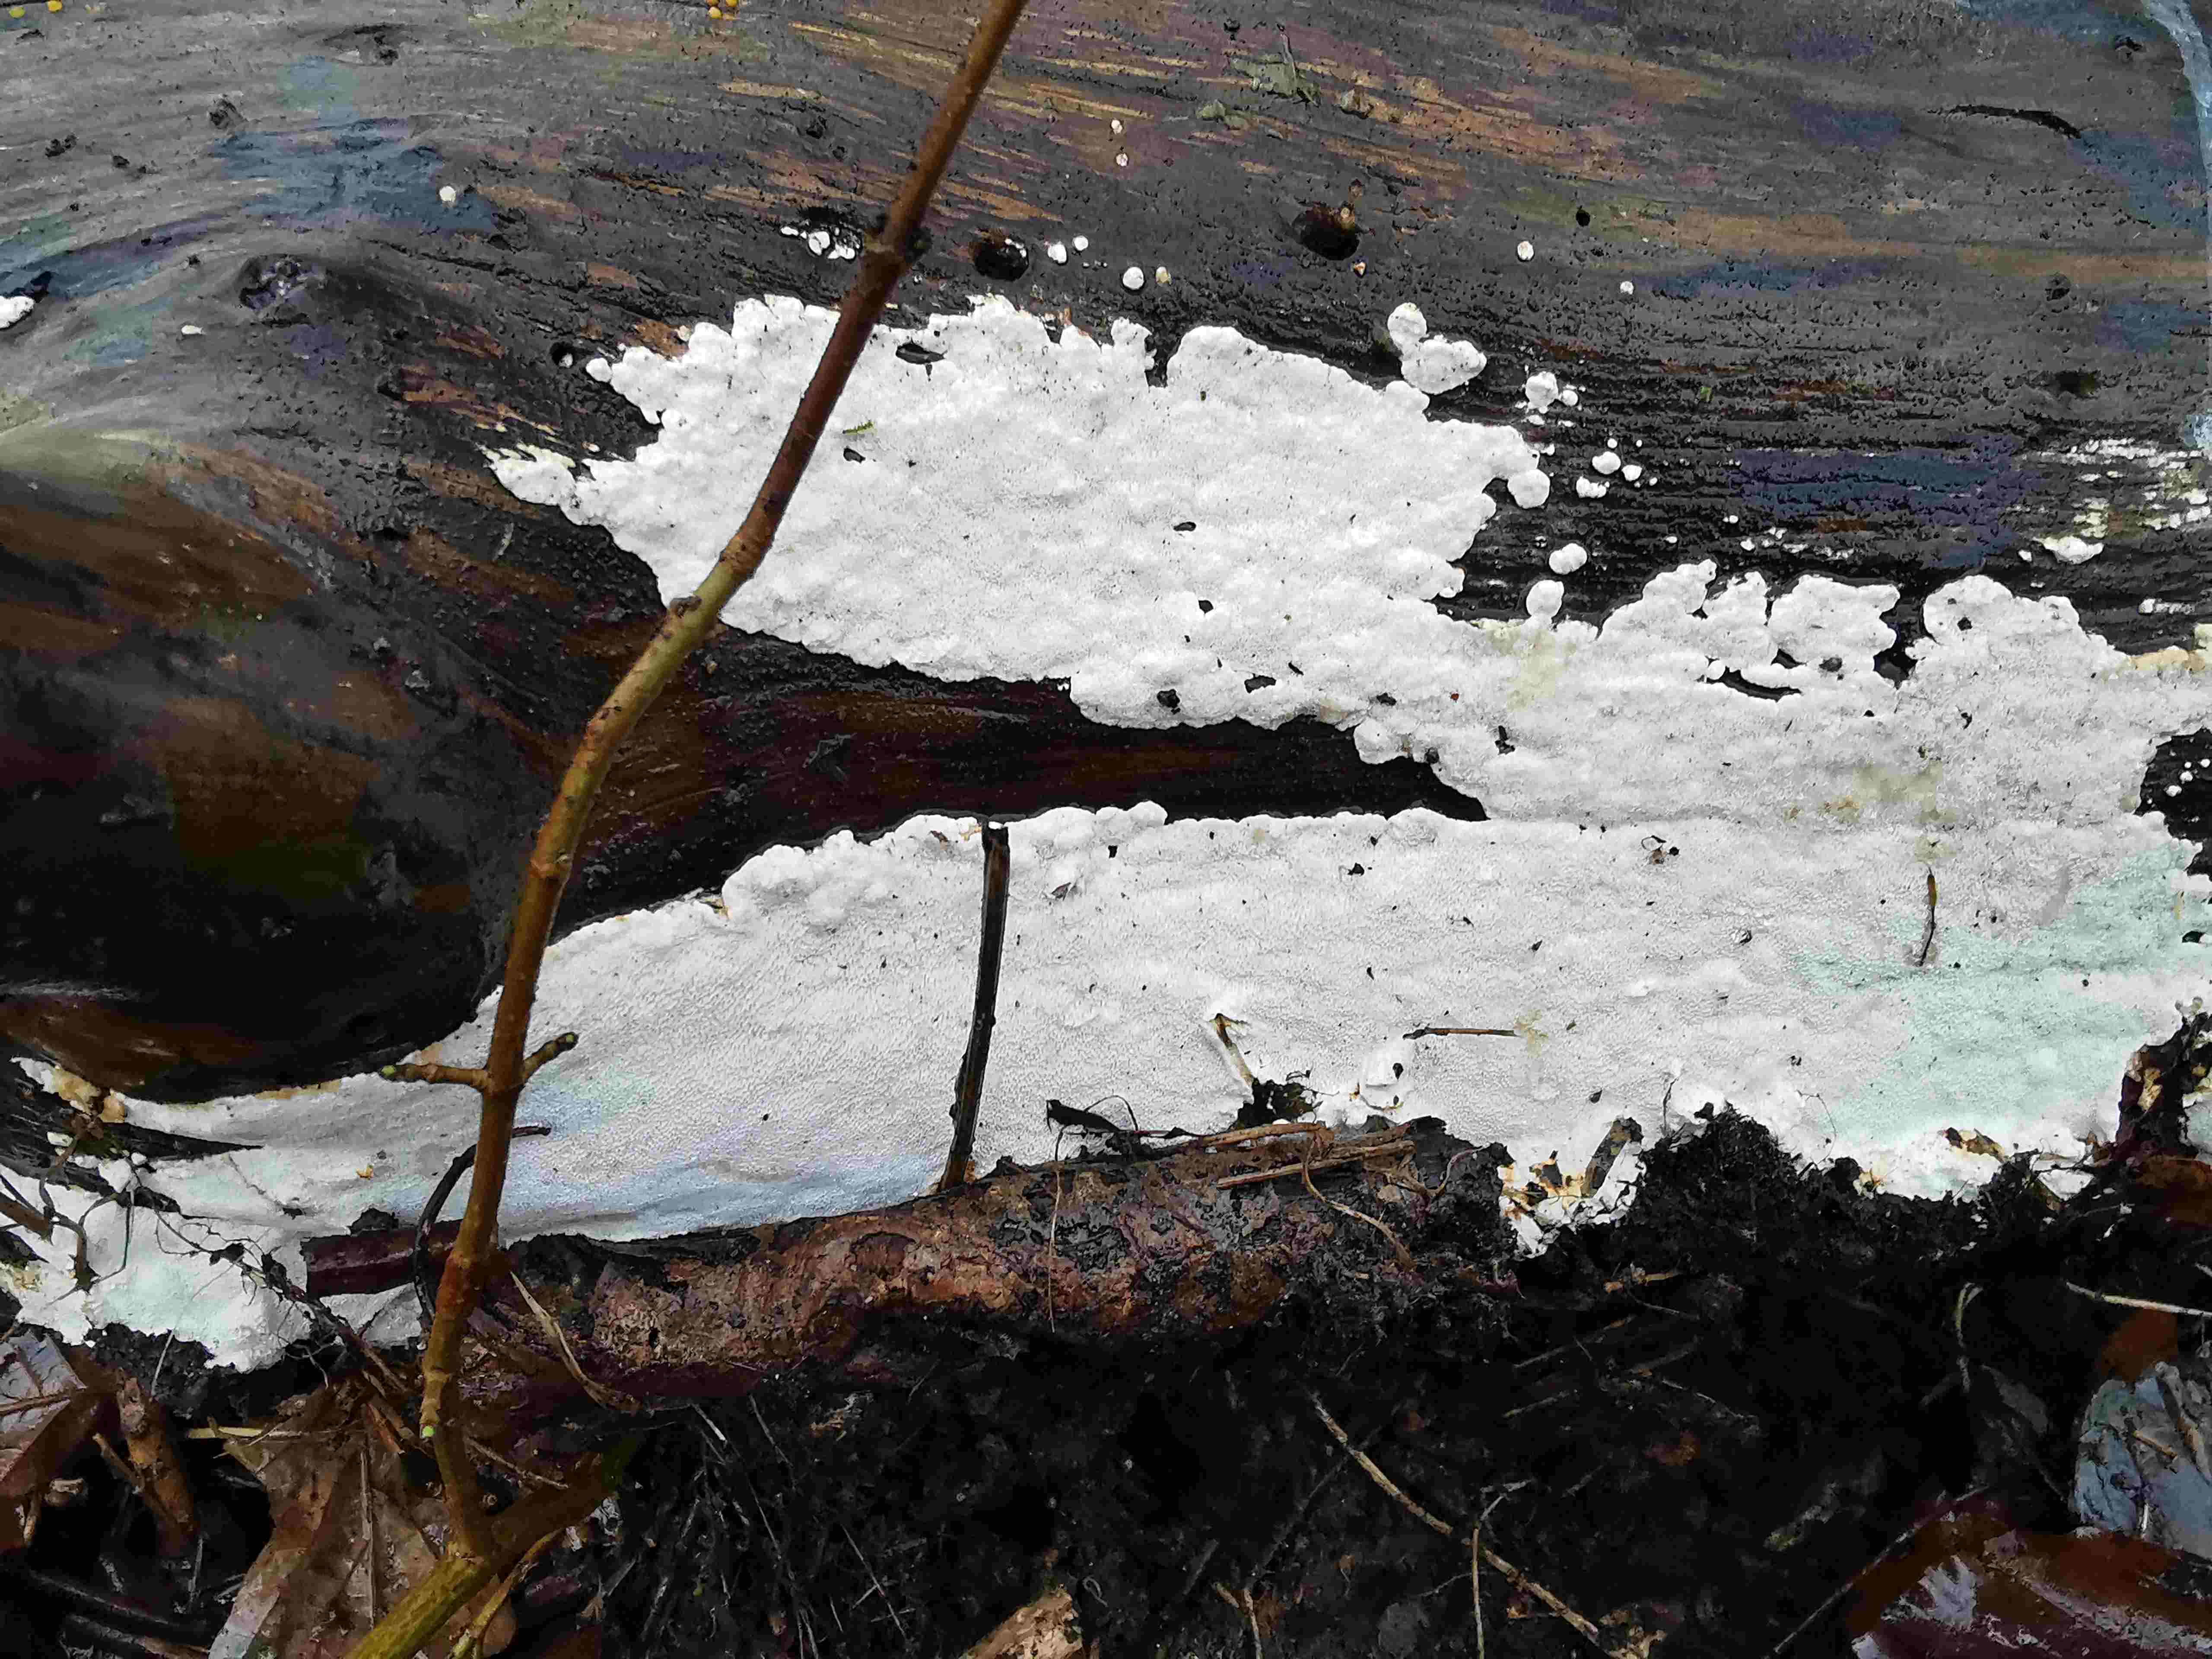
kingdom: Fungi
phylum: Basidiomycota
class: Agaricomycetes
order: Polyporales
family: Gelatoporiaceae
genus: Cinereomyces
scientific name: Cinereomyces lindbladii
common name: almindelig gråporesvamp
